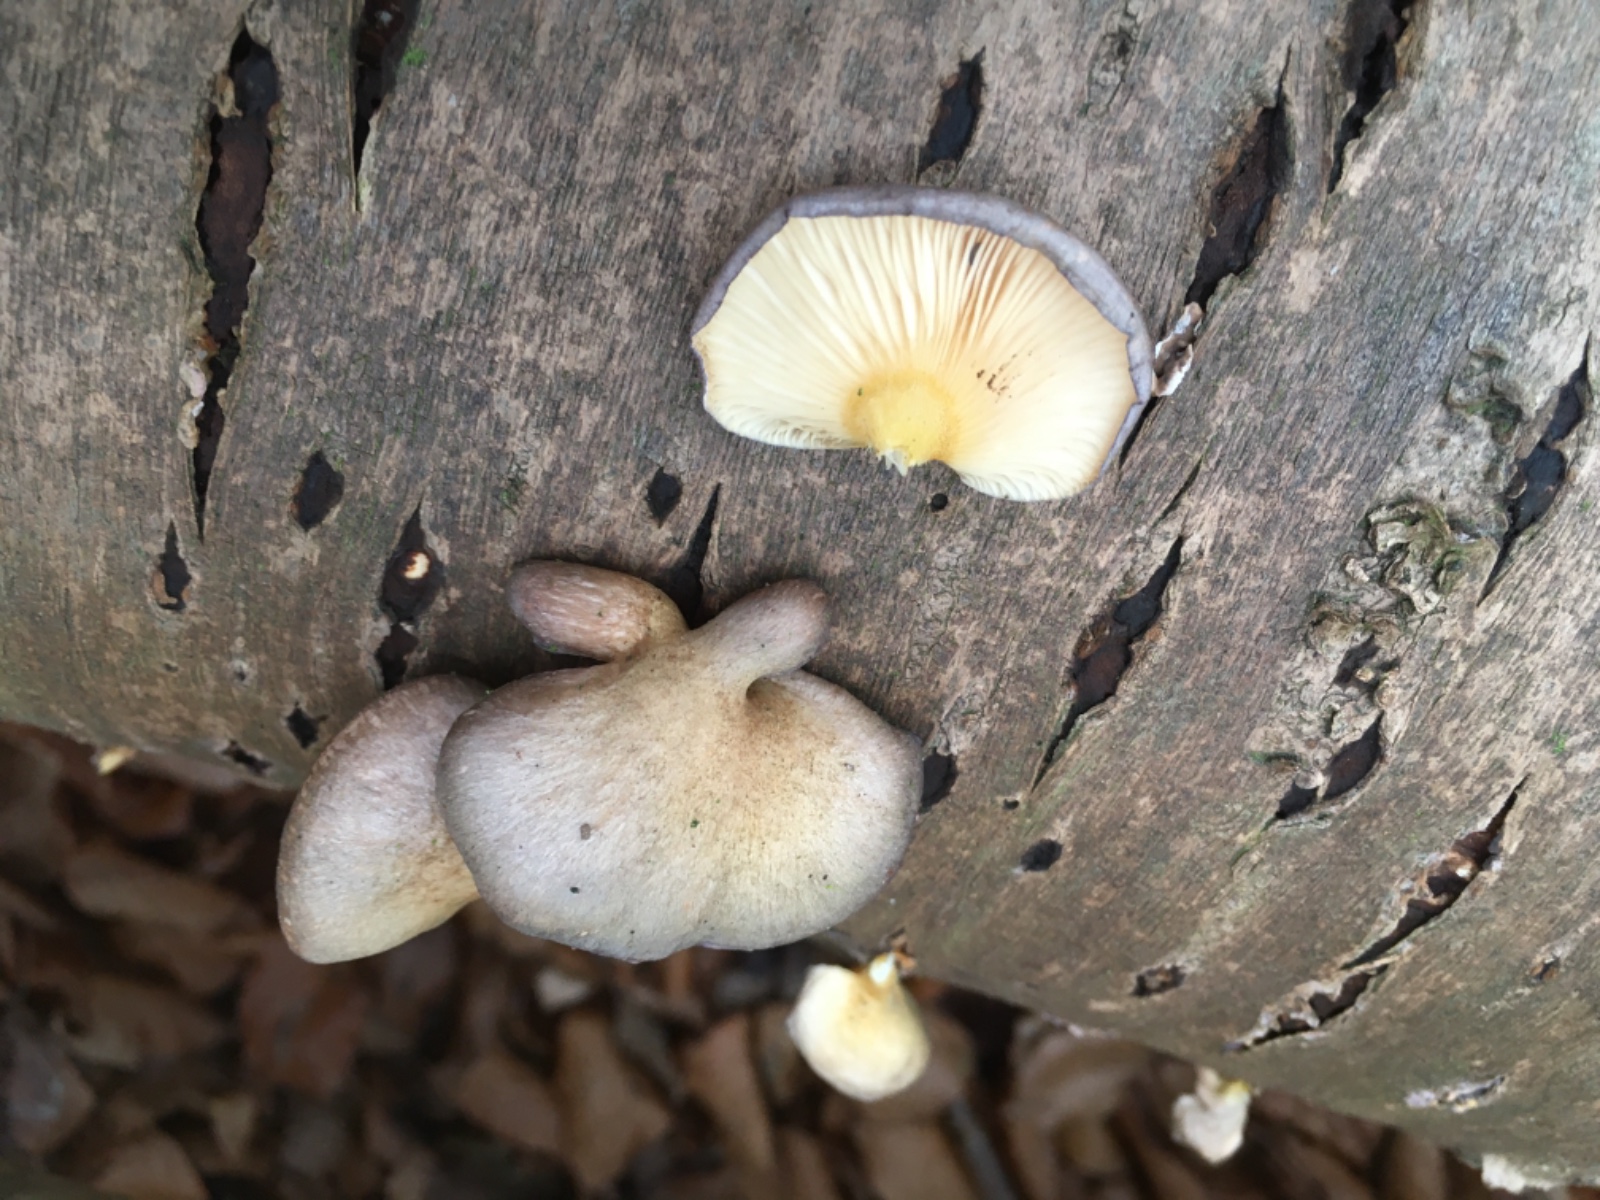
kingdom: Fungi
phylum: Basidiomycota
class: Agaricomycetes
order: Agaricales
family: Sarcomyxaceae
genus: Sarcomyxa
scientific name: Sarcomyxa serotina
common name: gummihat
